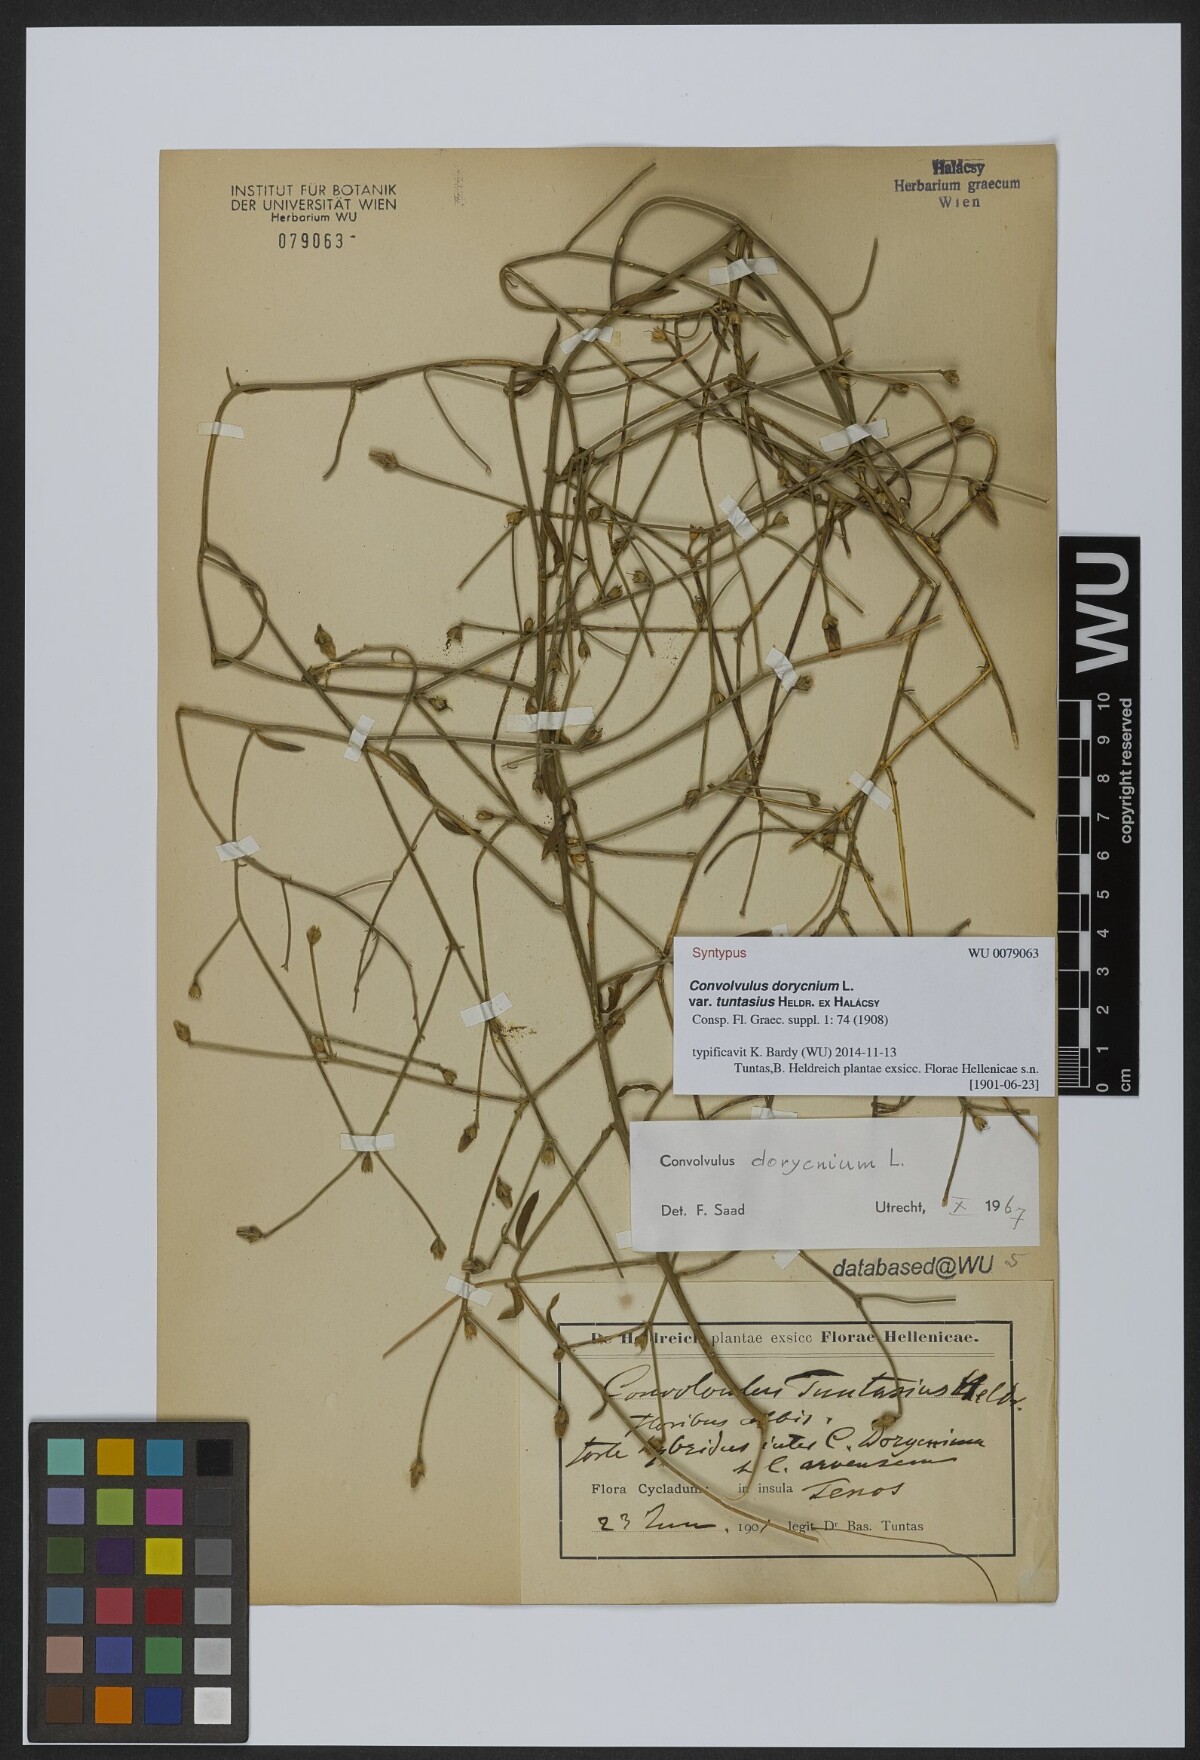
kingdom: Plantae
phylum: Tracheophyta
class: Magnoliopsida
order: Solanales
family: Convolvulaceae
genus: Convolvulus
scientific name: Convolvulus dorycnium
